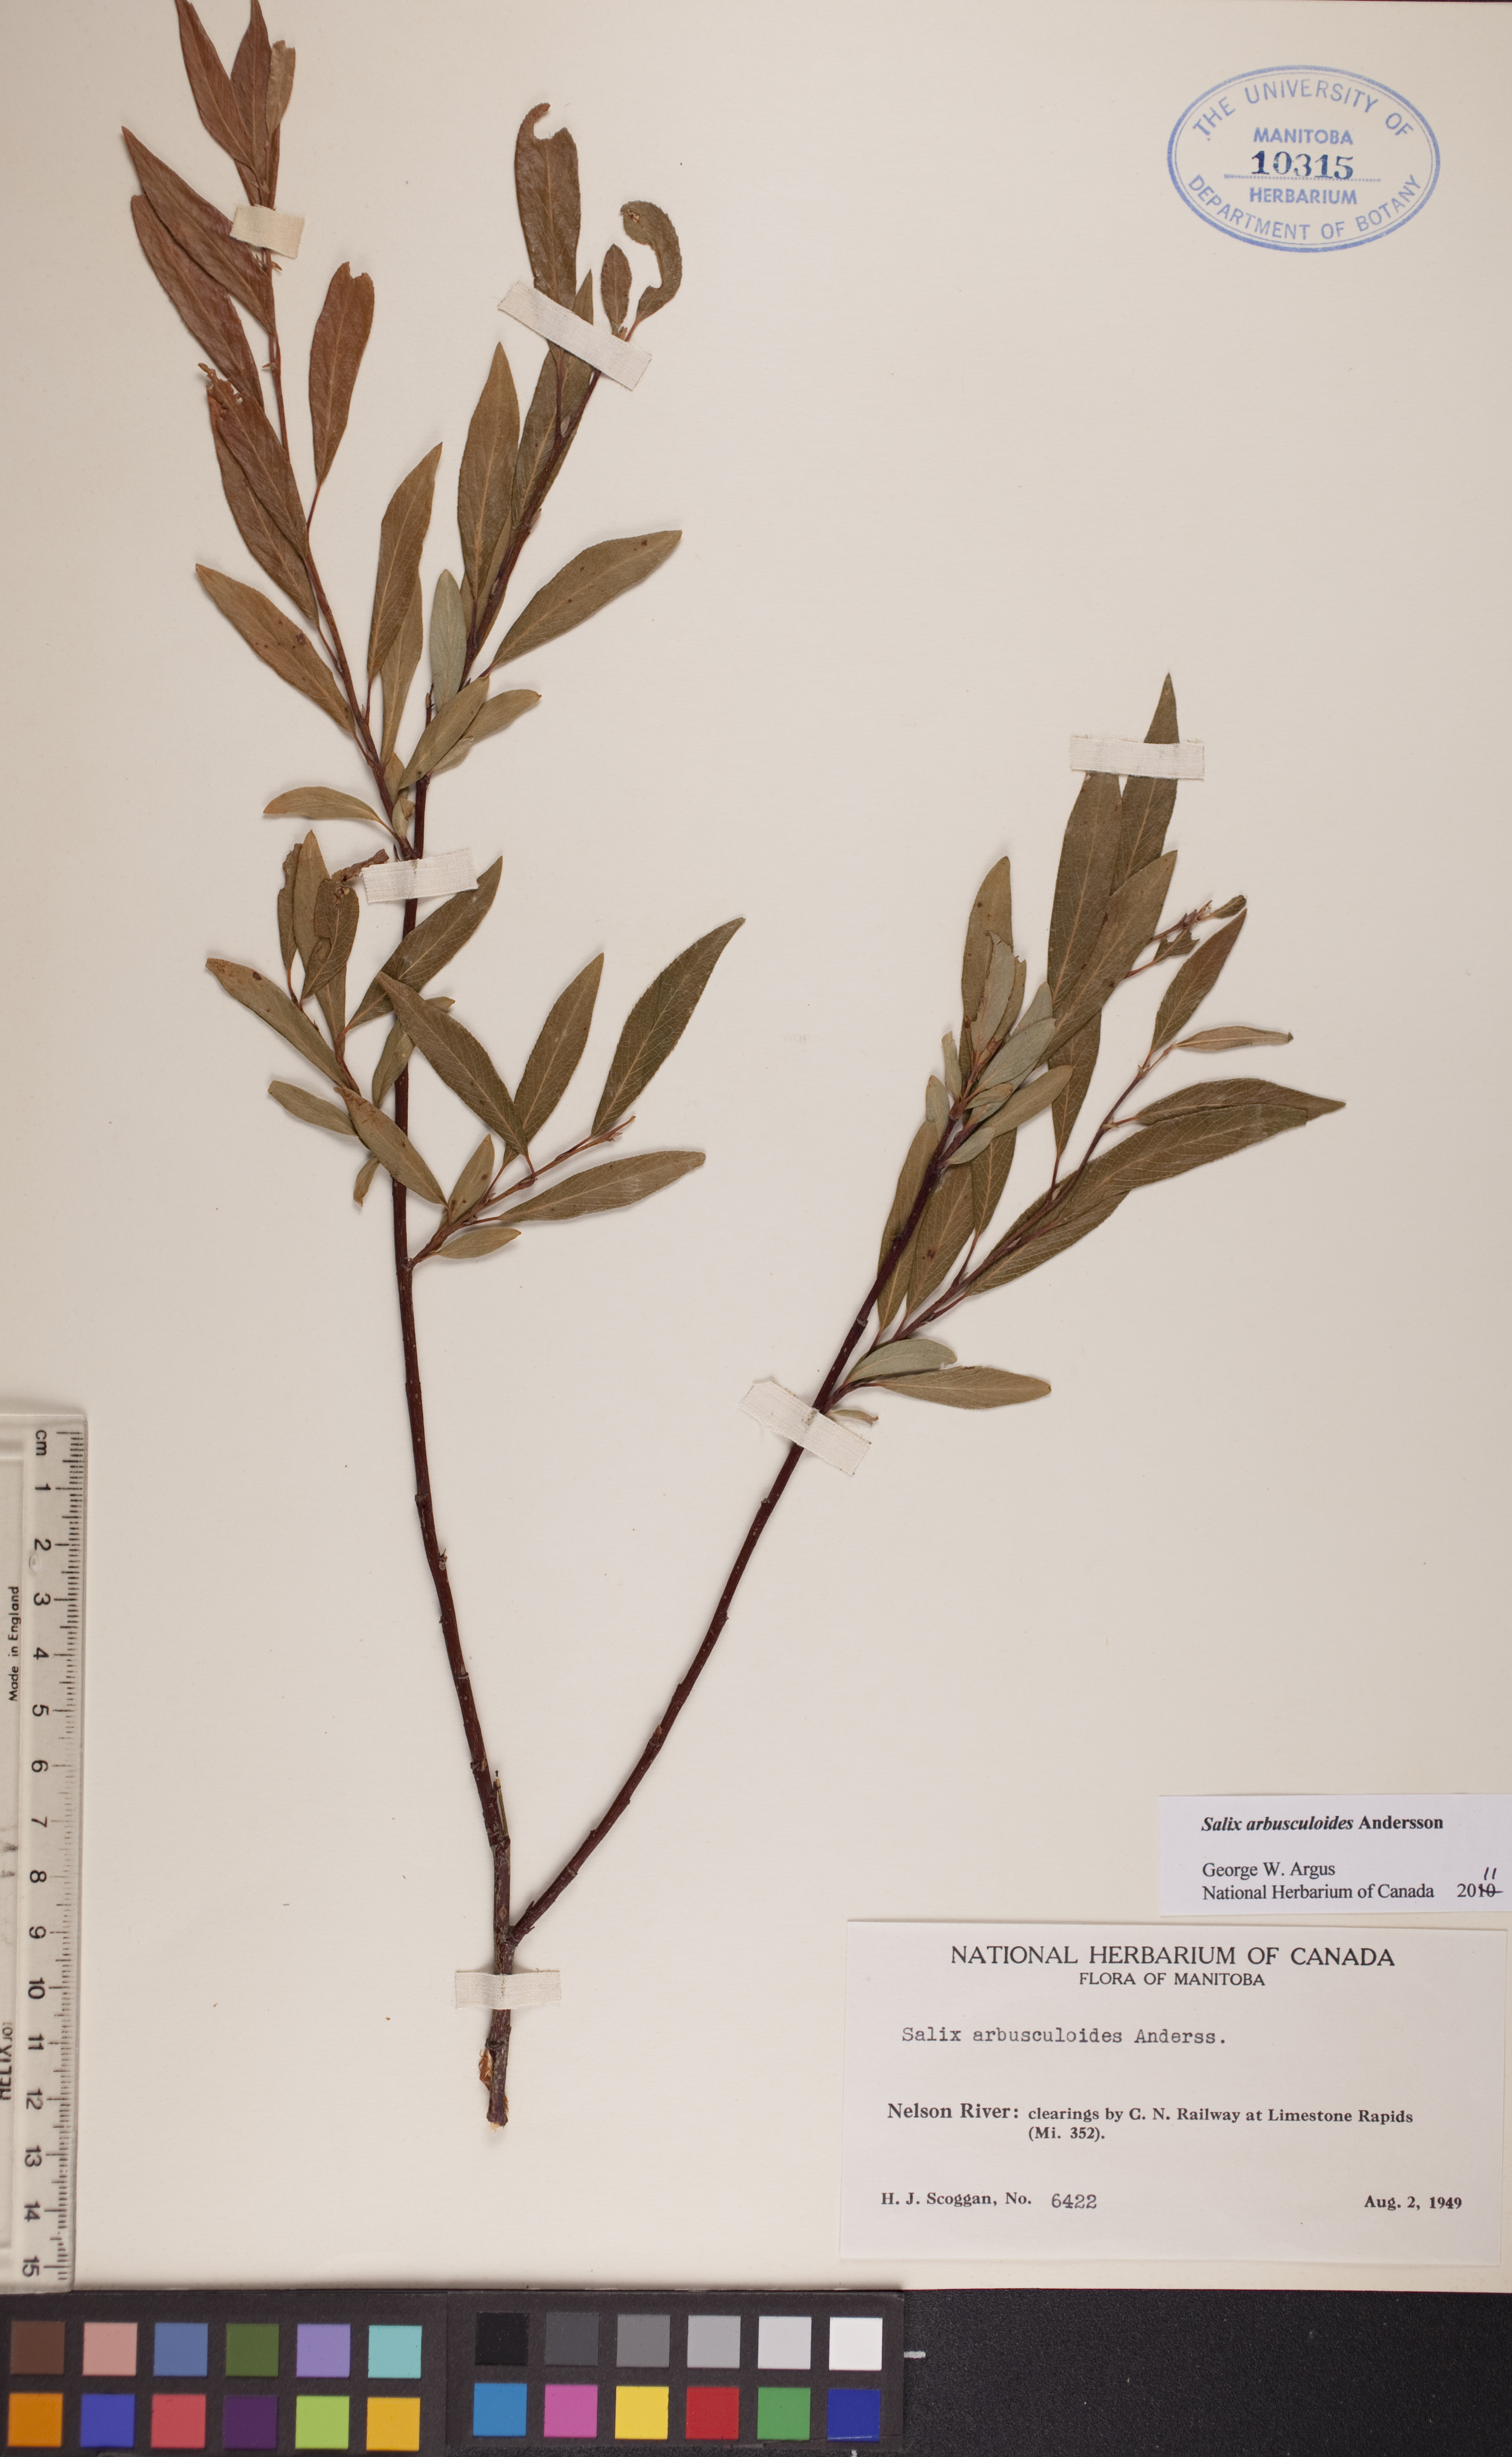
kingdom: Plantae
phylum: Tracheophyta
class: Magnoliopsida
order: Malpighiales
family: Salicaceae
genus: Salix
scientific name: Salix arbusculoides
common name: Little-tree willow
